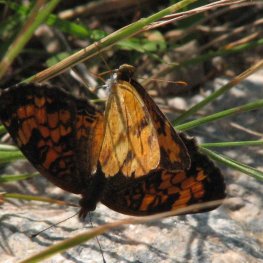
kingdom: Animalia
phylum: Arthropoda
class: Insecta
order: Lepidoptera
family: Nymphalidae
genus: Phyciodes
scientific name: Phyciodes tharos
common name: Northern Crescent
